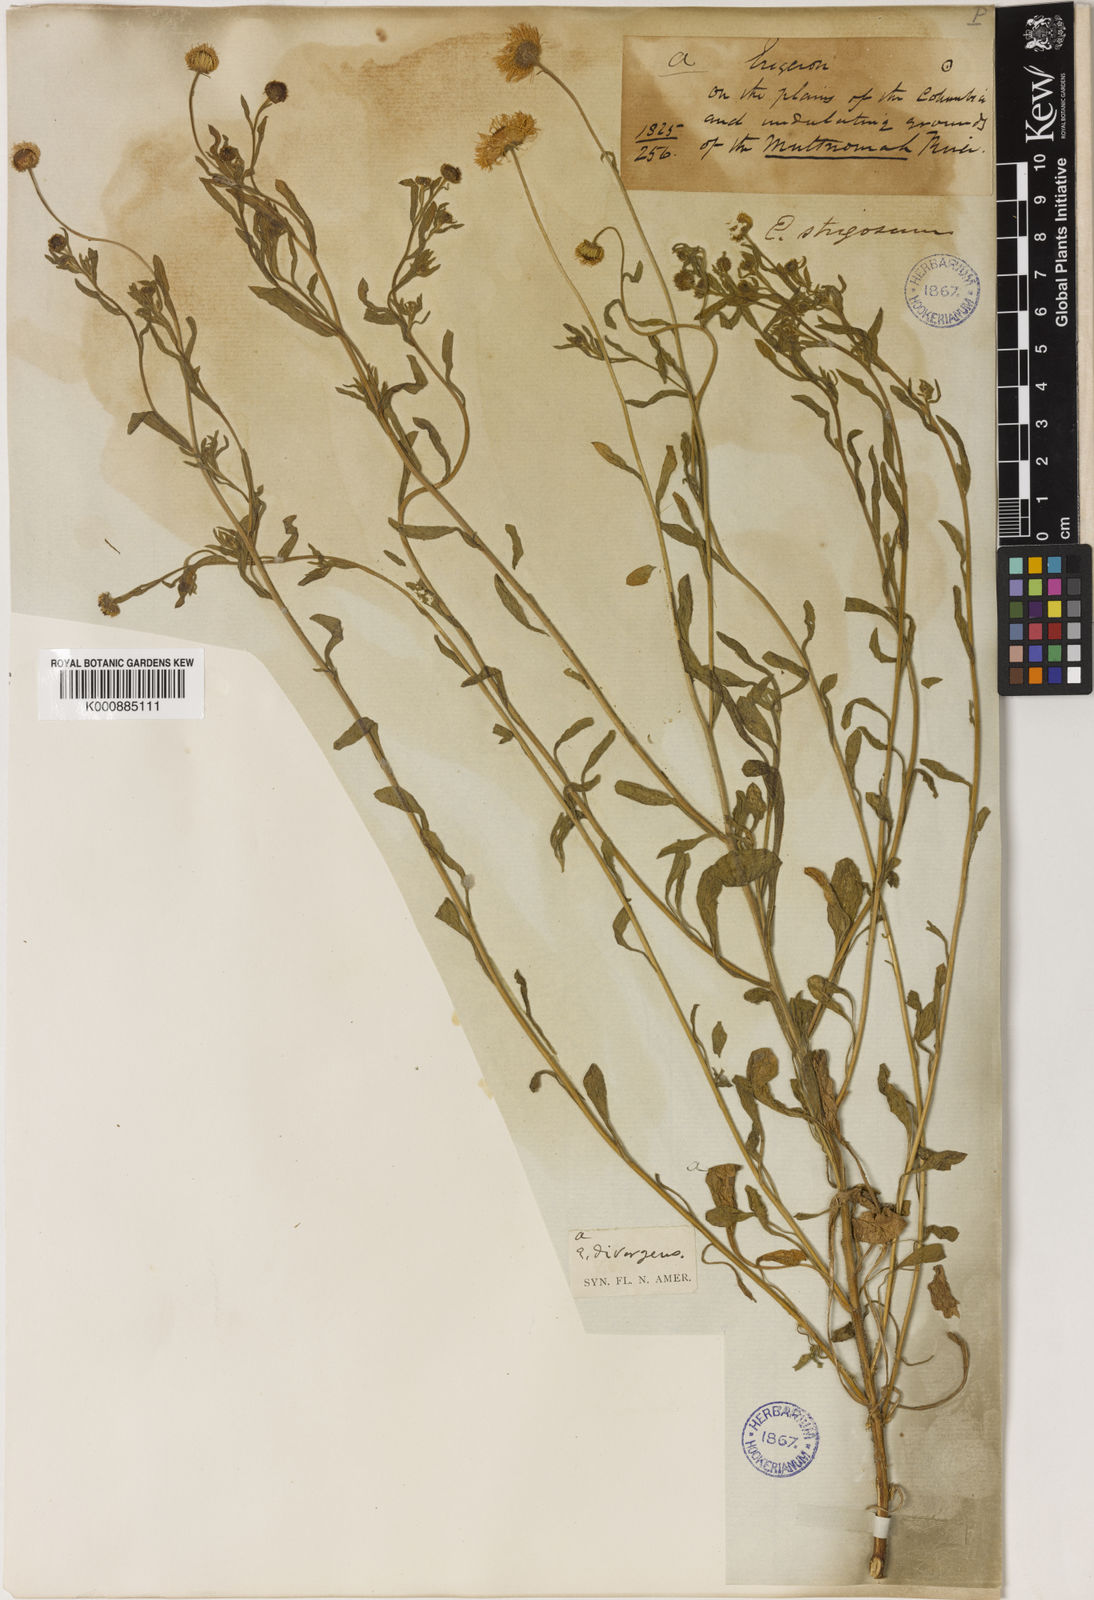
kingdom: Plantae
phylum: Tracheophyta
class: Magnoliopsida
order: Asterales
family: Asteraceae
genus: Erigeron
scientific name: Erigeron divergens
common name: Diffuse fleabane
